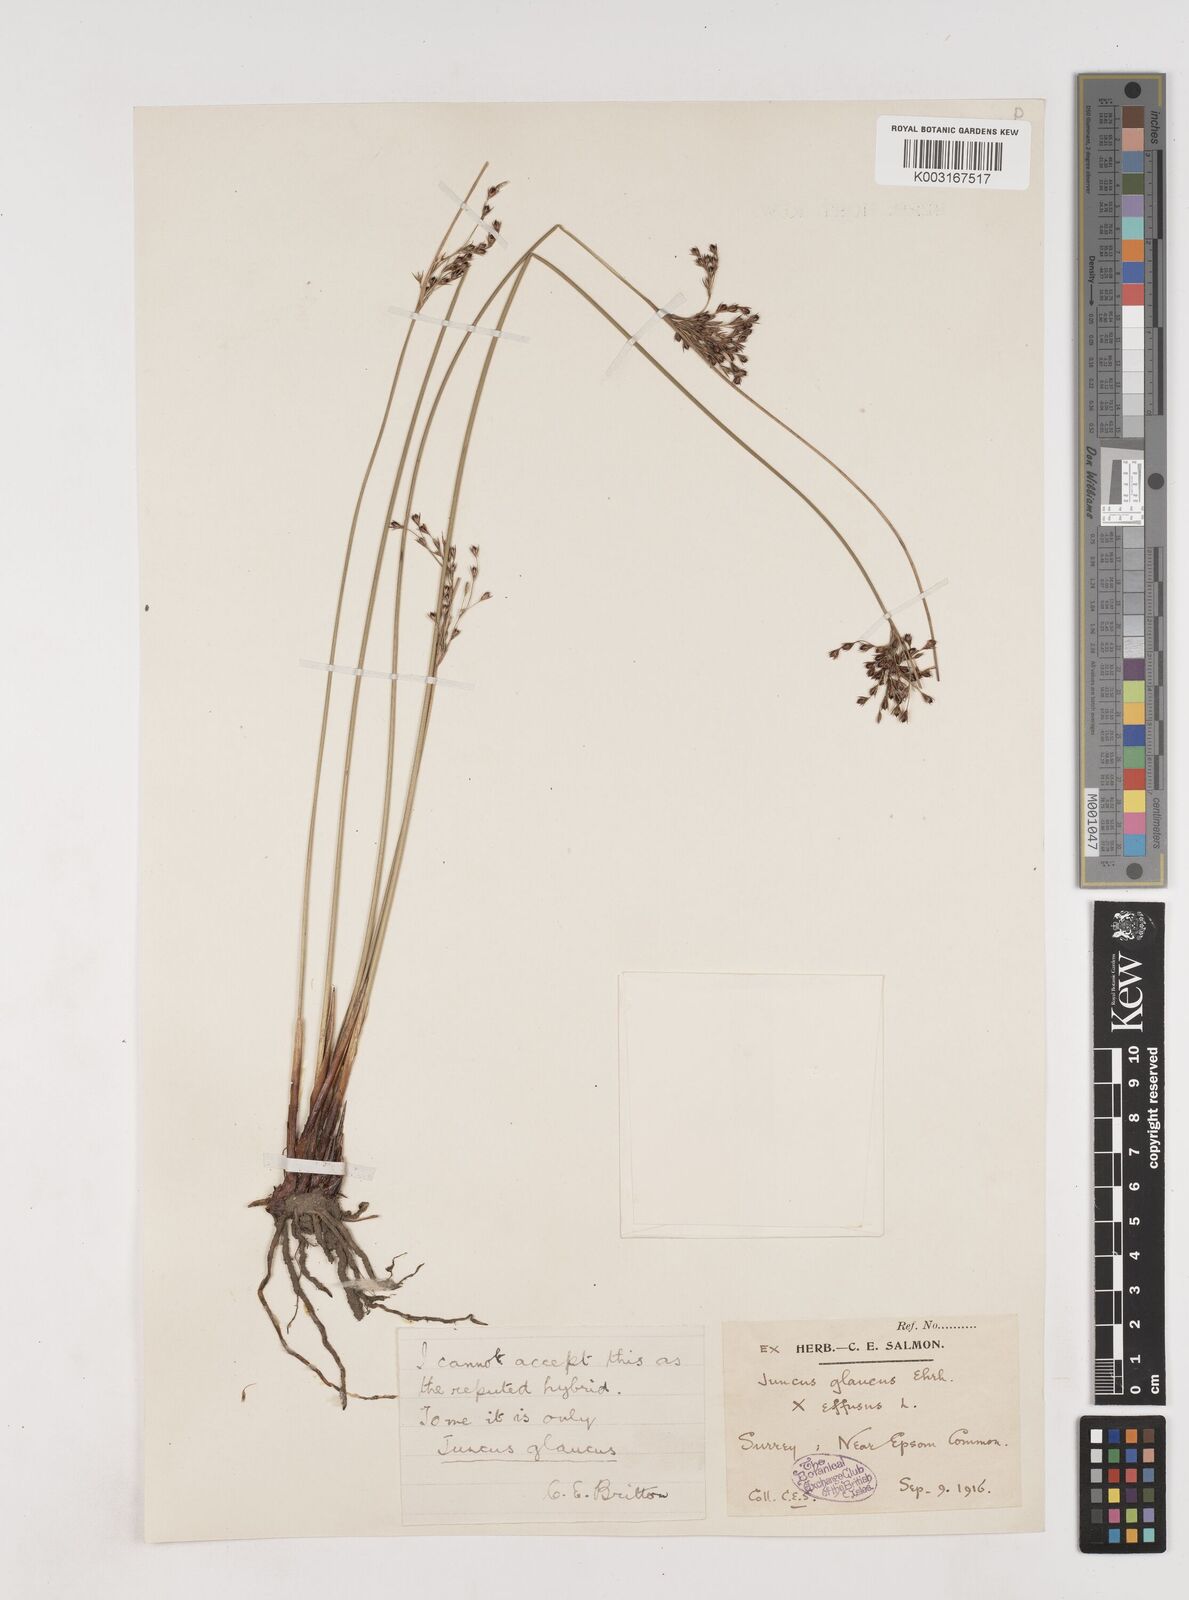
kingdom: Plantae
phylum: Tracheophyta
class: Liliopsida
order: Poales
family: Juncaceae
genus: Juncus
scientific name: Juncus inflexus
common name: Hard rush
